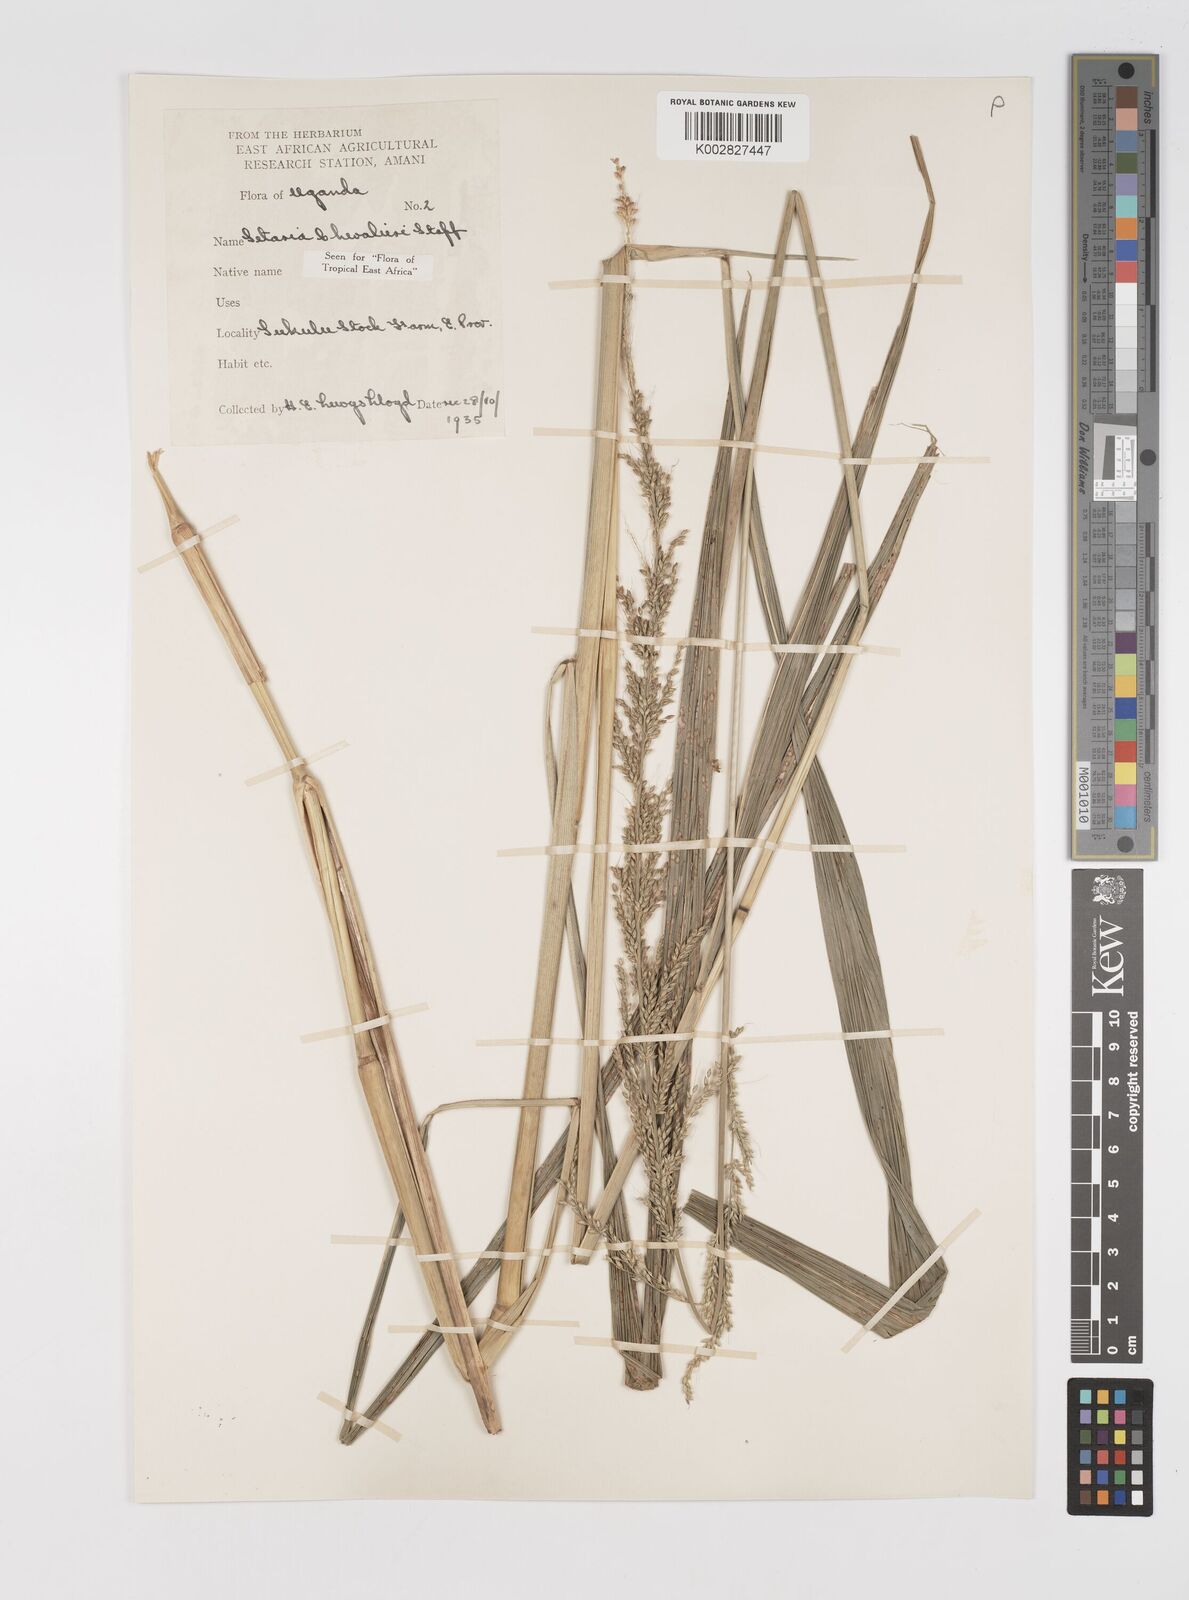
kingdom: Plantae
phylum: Tracheophyta
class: Liliopsida
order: Poales
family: Poaceae
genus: Setaria
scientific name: Setaria megaphylla
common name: Bigleaf bristlegrass
